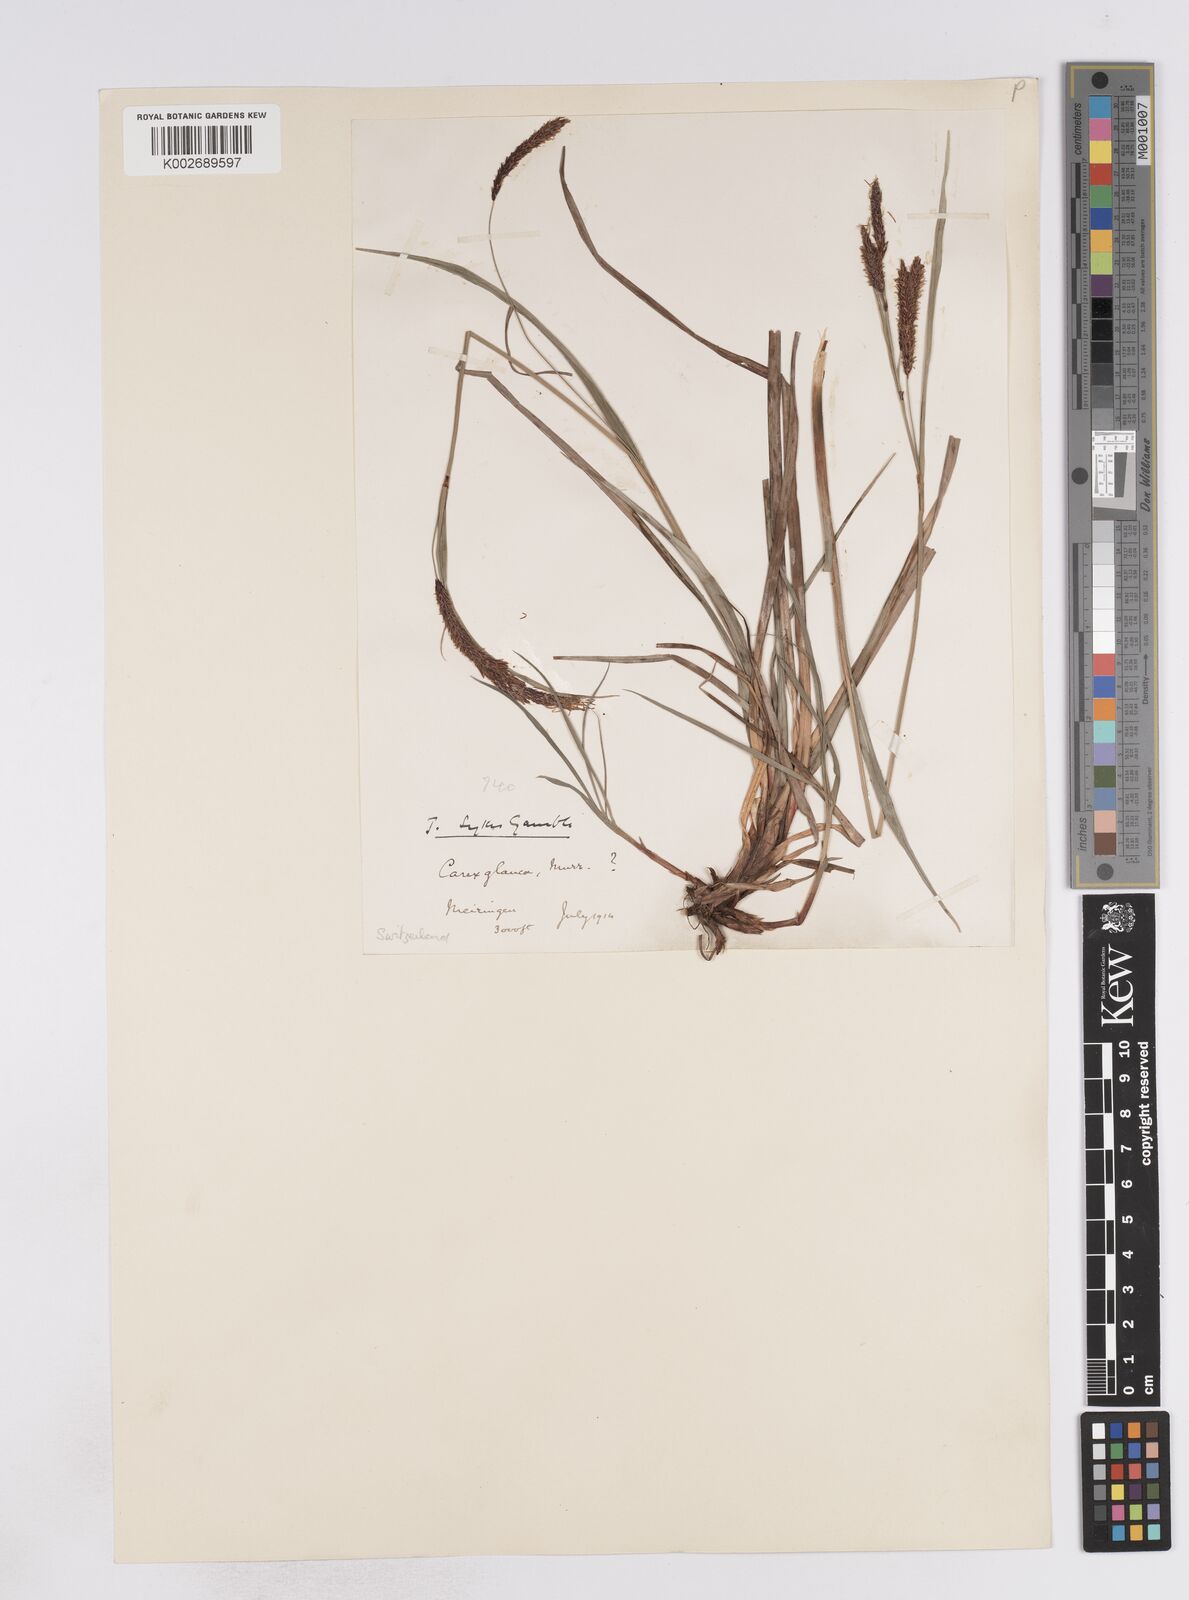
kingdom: Plantae
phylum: Tracheophyta
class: Liliopsida
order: Poales
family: Cyperaceae
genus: Carex
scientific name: Carex flacca
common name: Glaucous sedge
